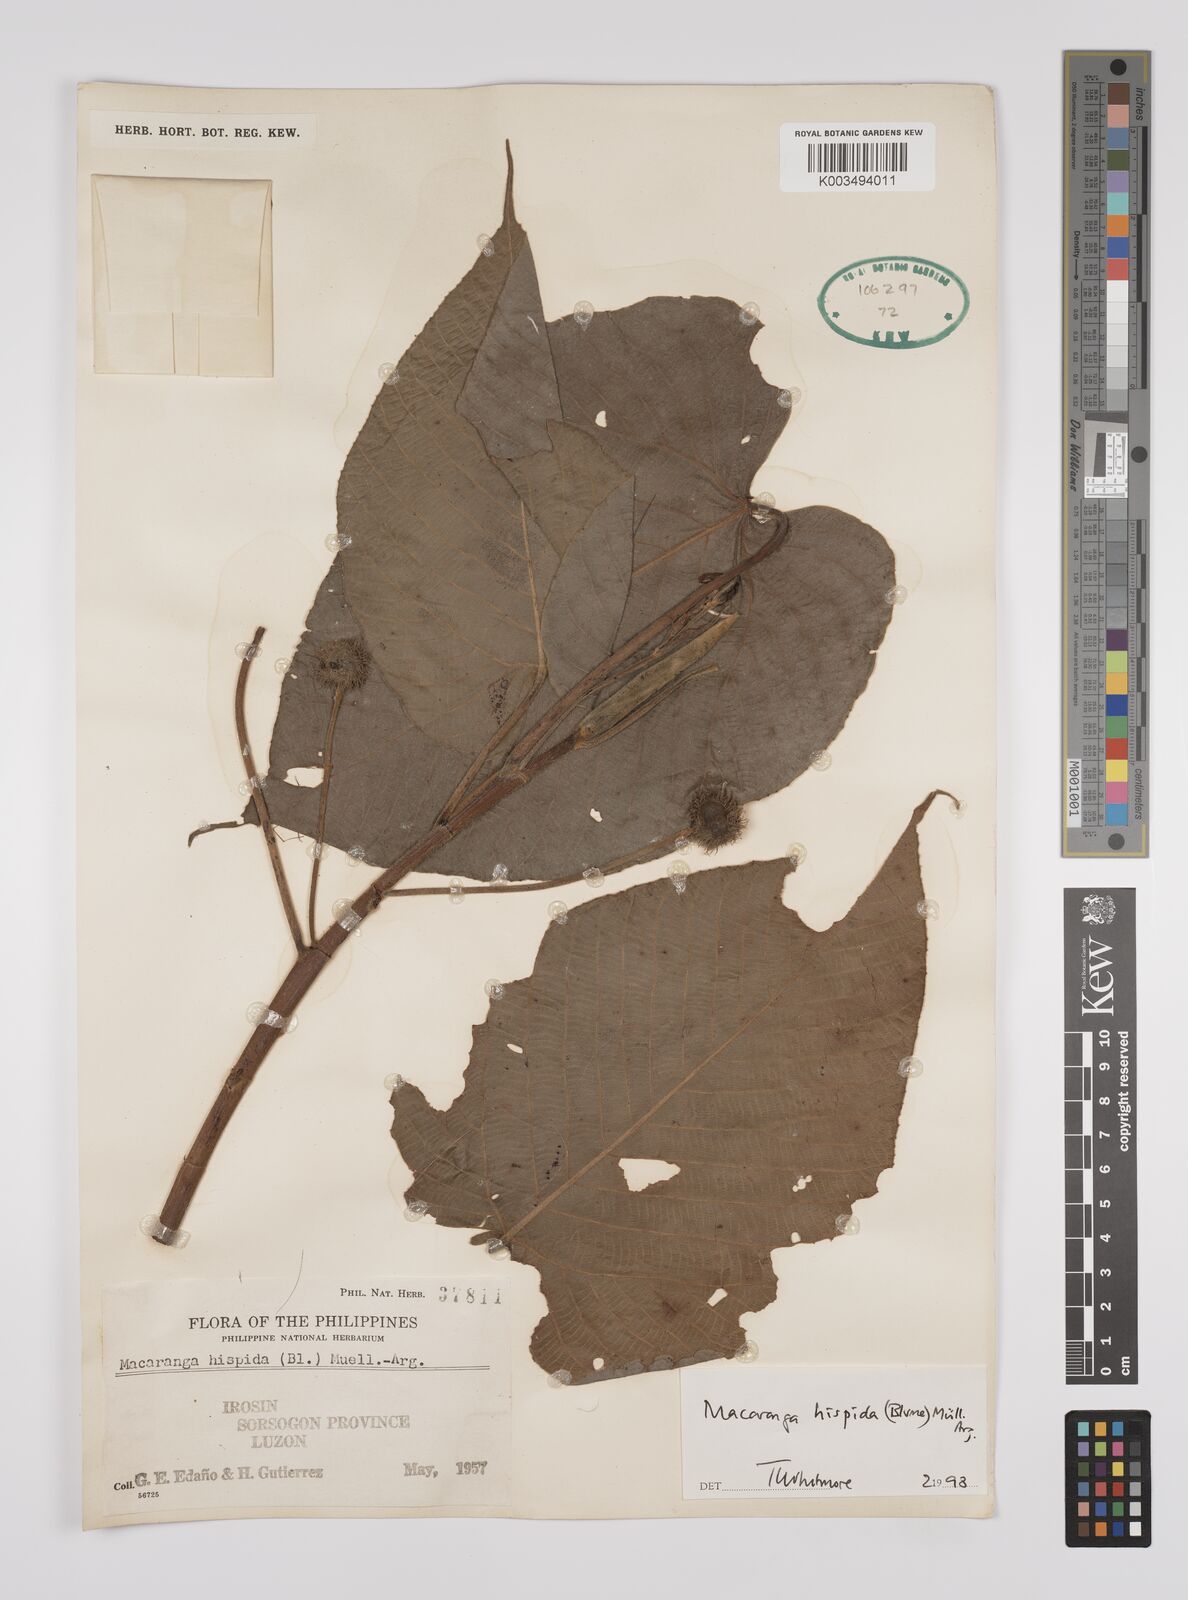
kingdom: Plantae
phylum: Tracheophyta
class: Magnoliopsida
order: Malpighiales
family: Euphorbiaceae
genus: Macaranga
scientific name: Macaranga hispida
